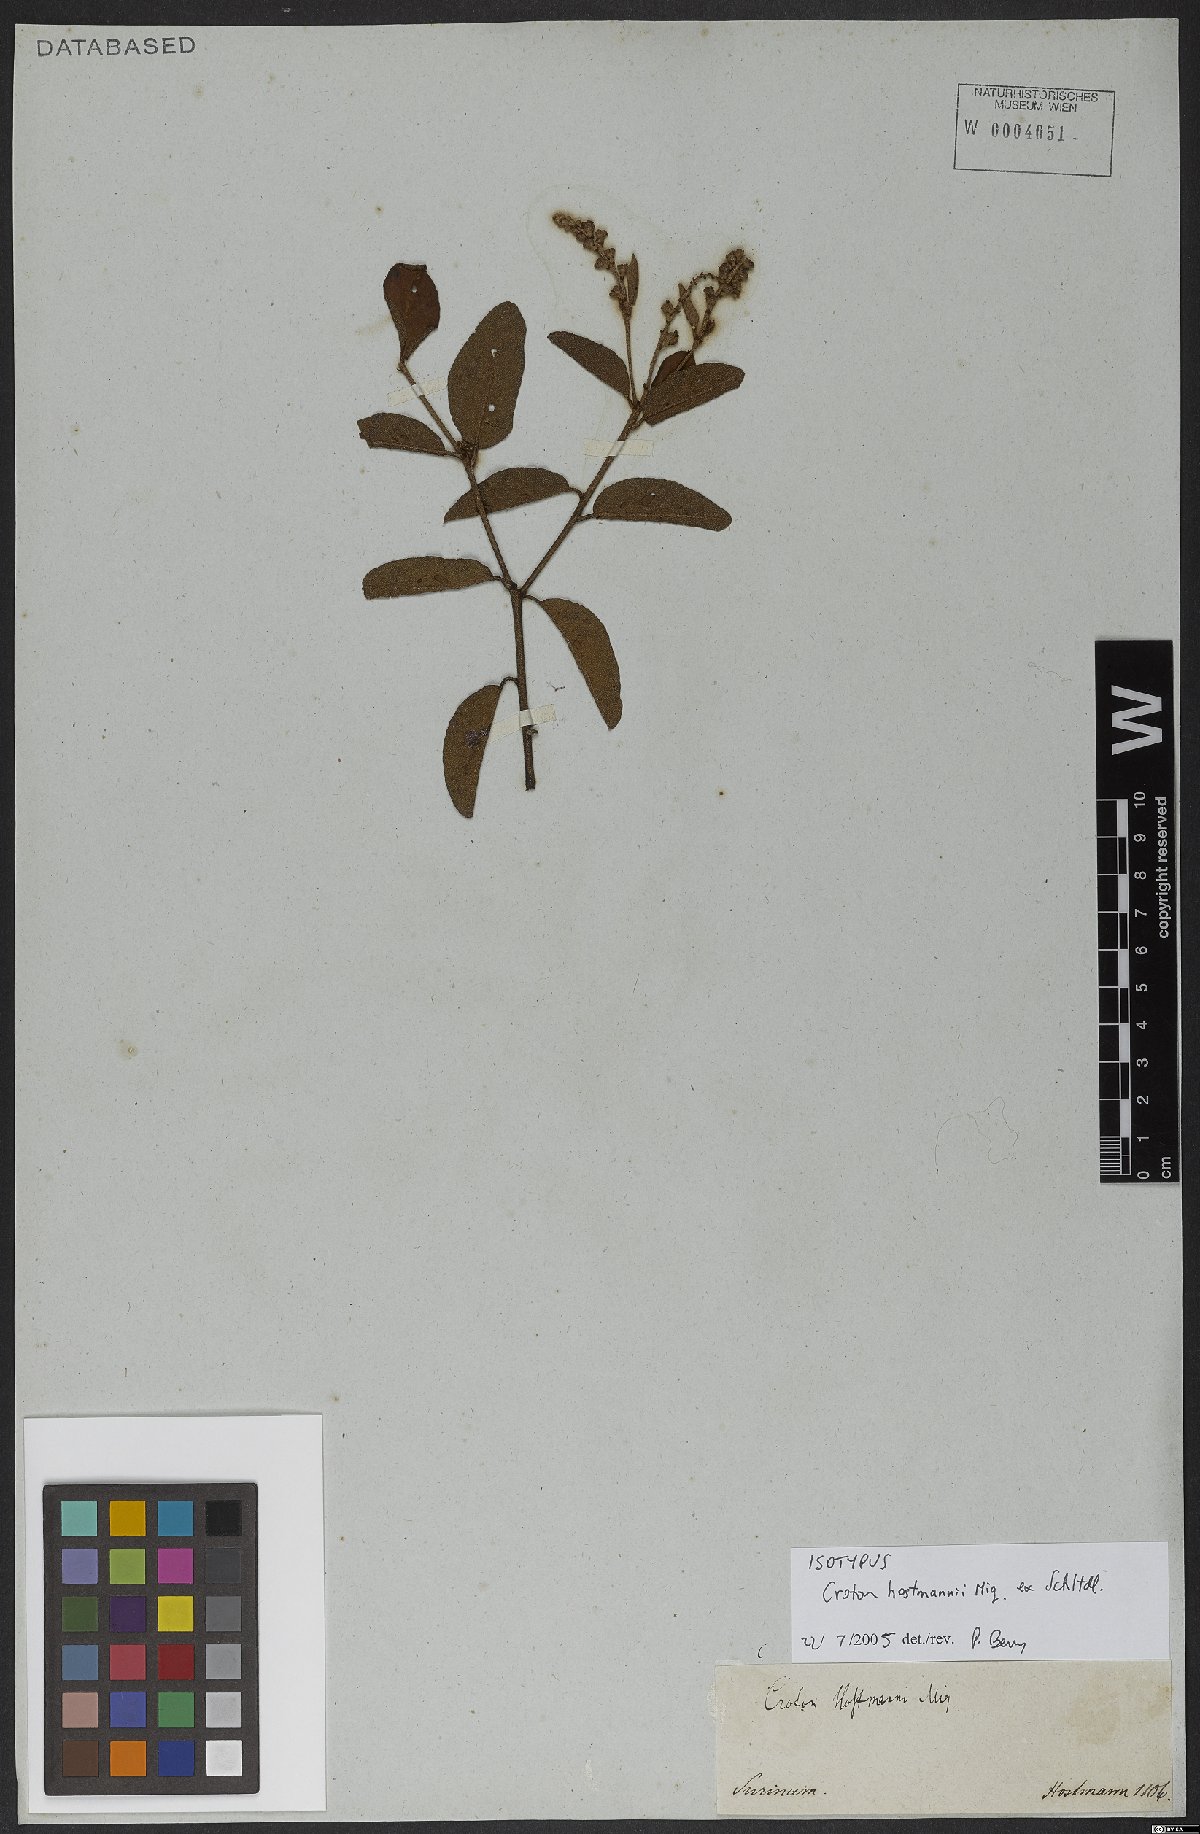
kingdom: Plantae
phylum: Tracheophyta
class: Magnoliopsida
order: Malpighiales
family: Euphorbiaceae
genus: Croton
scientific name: Croton hostmannii
